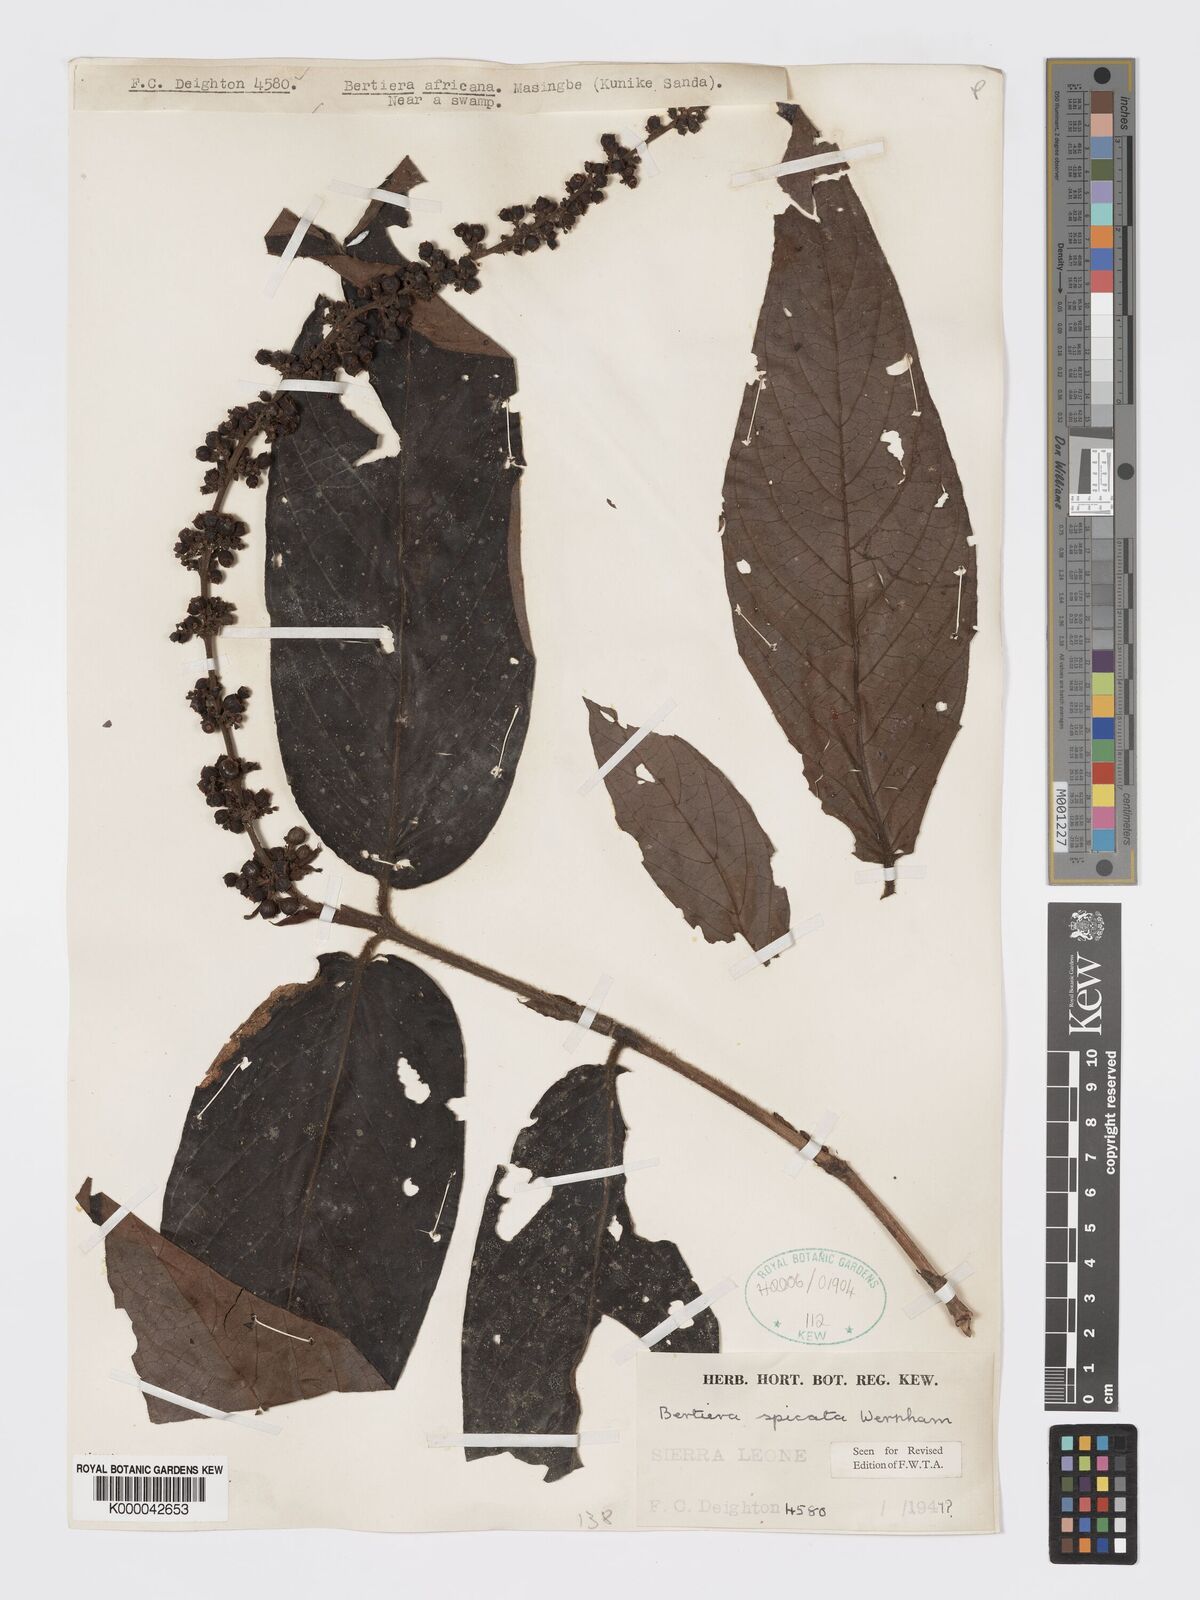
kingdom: Plantae
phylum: Tracheophyta
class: Magnoliopsida
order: Gentianales
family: Rubiaceae
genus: Bertiera
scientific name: Bertiera
